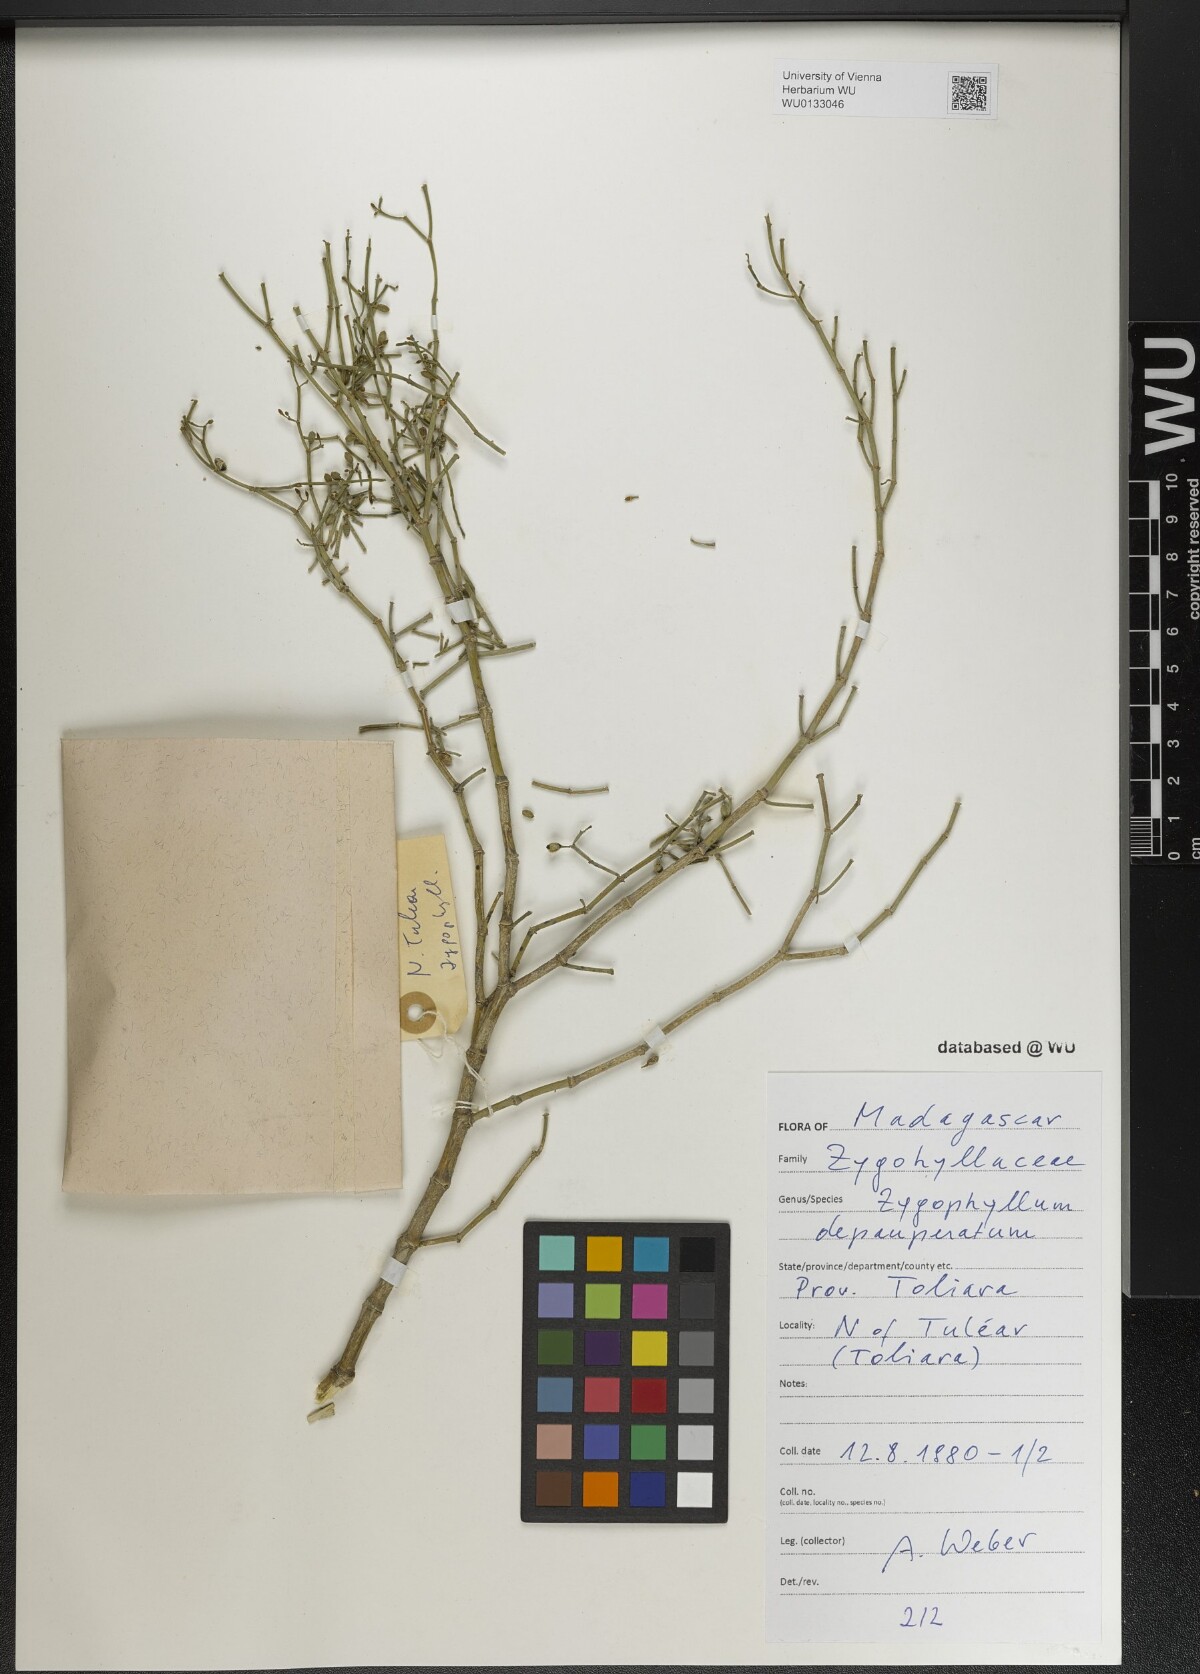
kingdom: Plantae
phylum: Tracheophyta
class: Magnoliopsida
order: Zygophyllales
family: Zygophyllaceae
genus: Tetraena
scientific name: Tetraena madagascariensis
